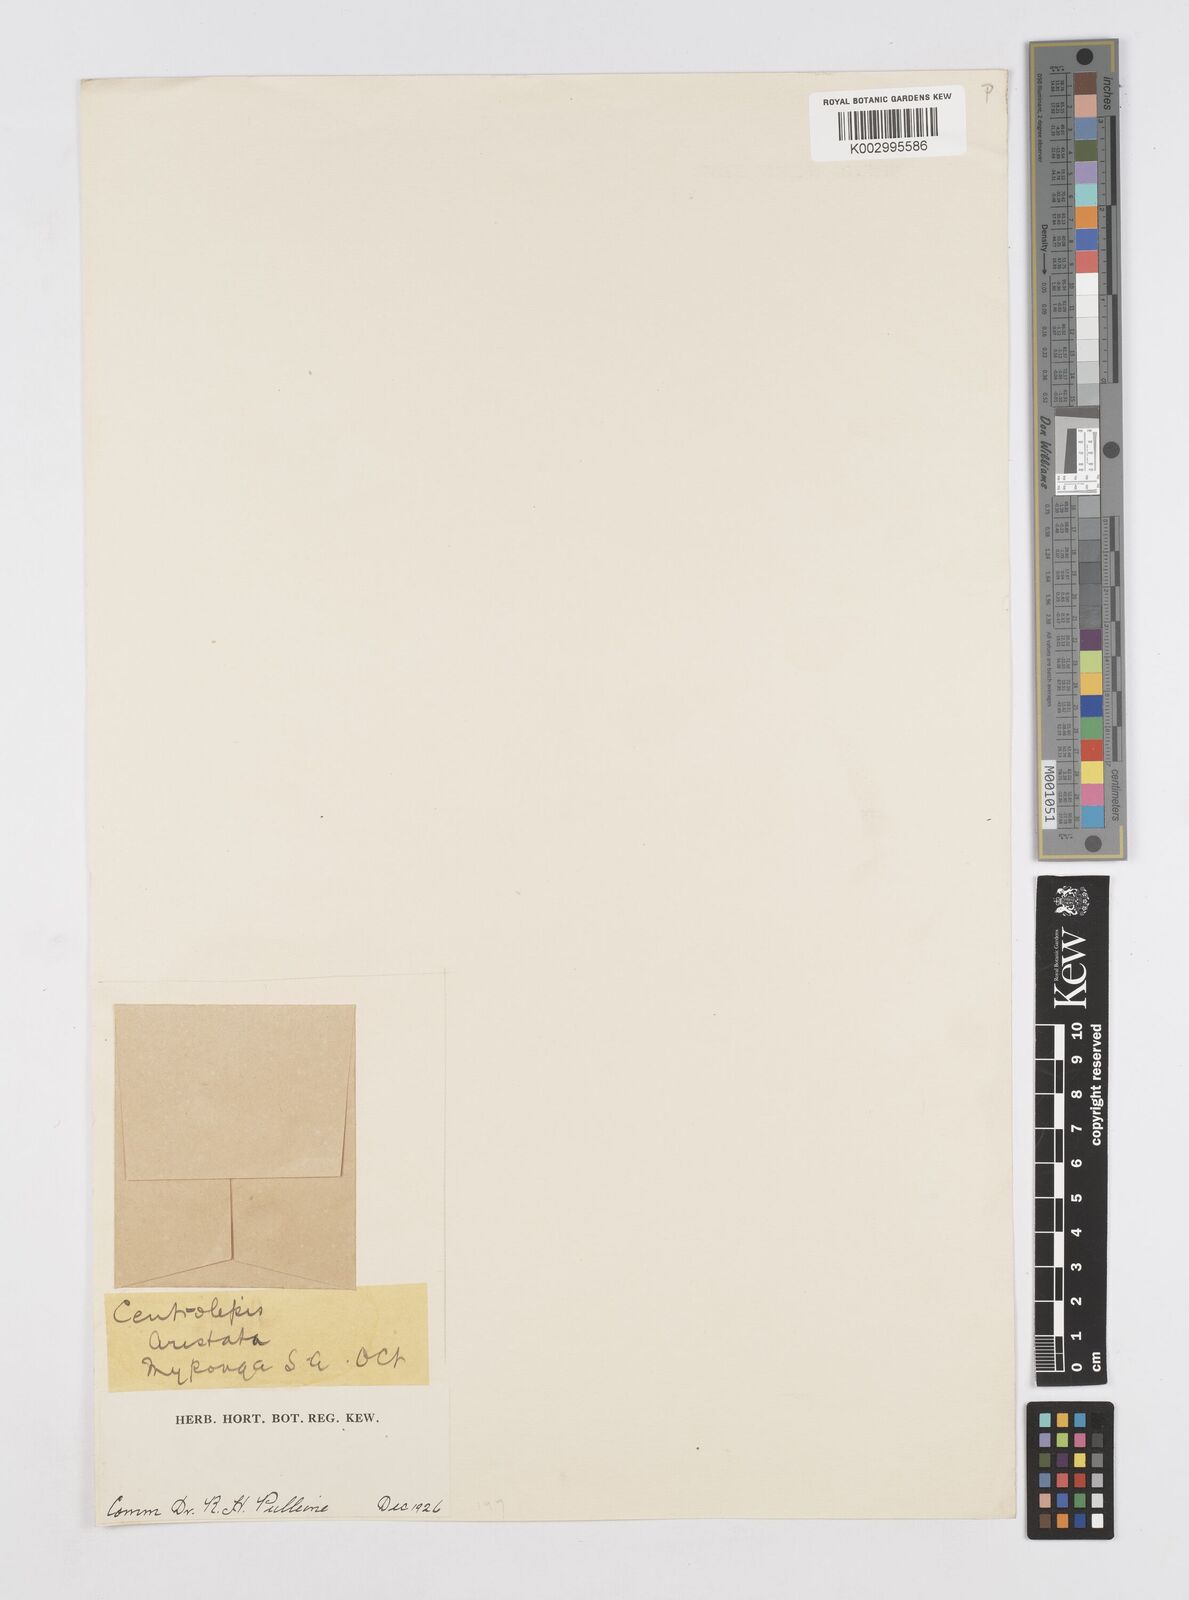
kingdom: Plantae
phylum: Tracheophyta
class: Liliopsida
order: Poales
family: Restionaceae
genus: Centrolepis
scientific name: Centrolepis aristata
